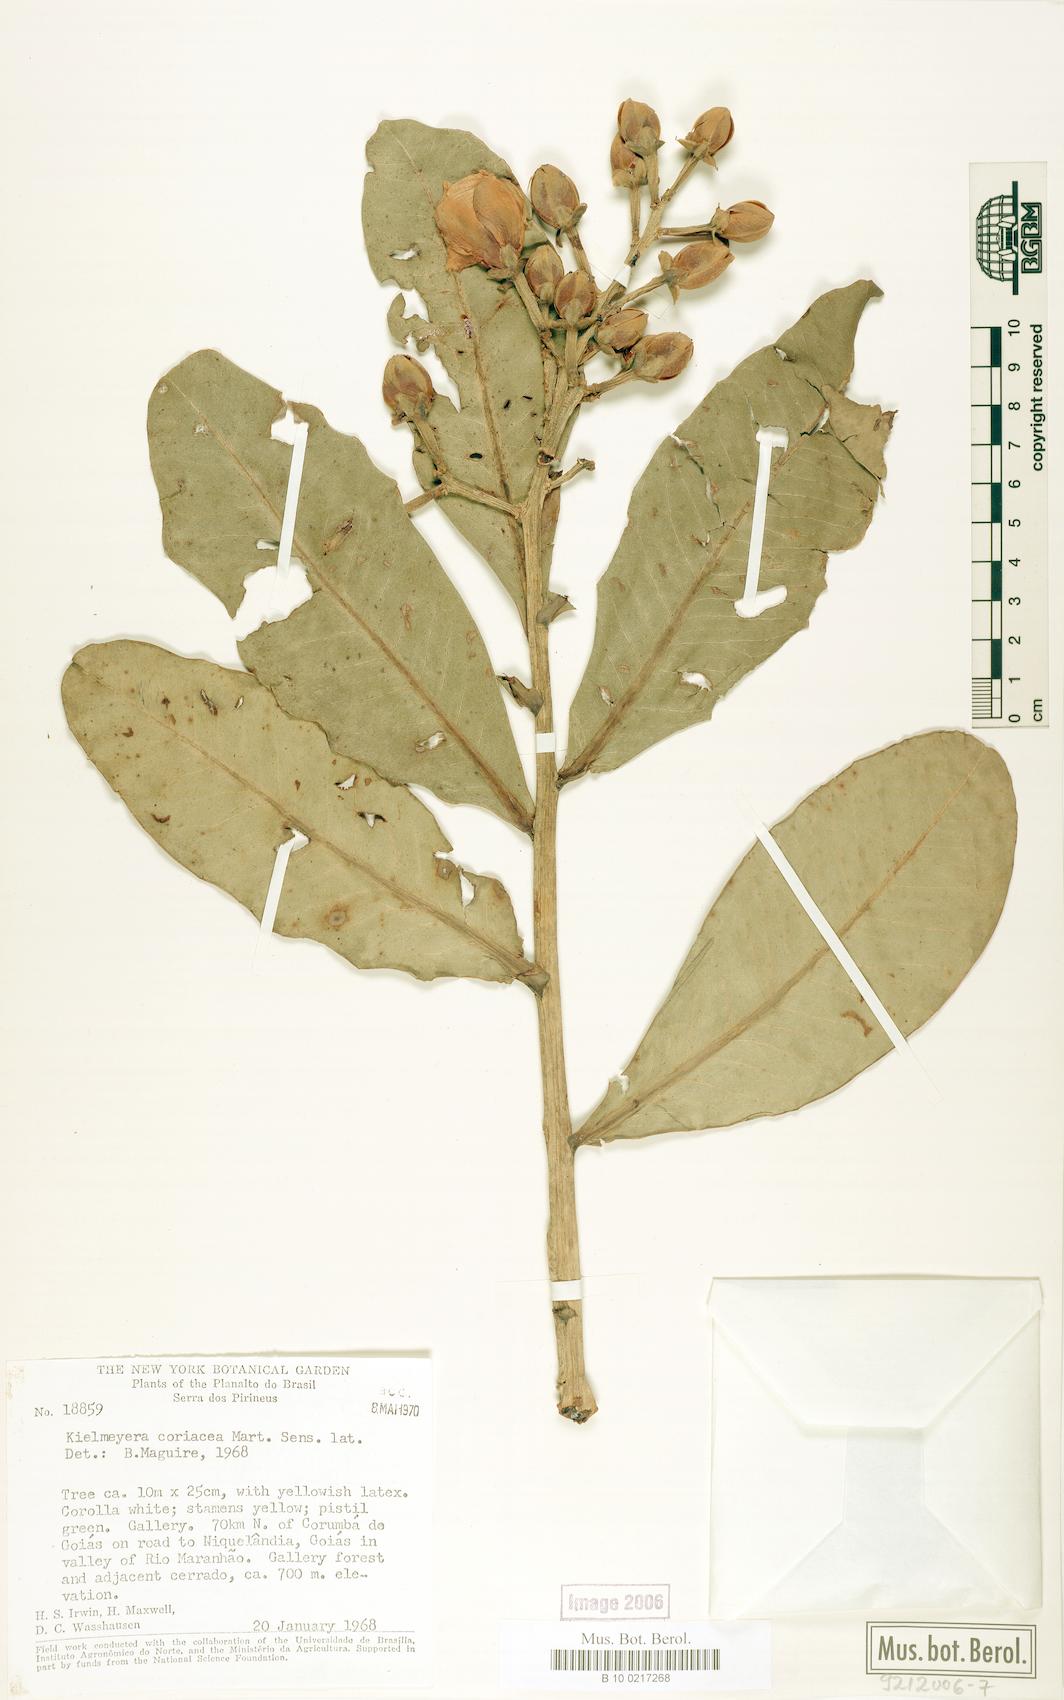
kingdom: Plantae
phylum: Tracheophyta
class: Magnoliopsida
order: Malpighiales
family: Calophyllaceae
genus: Kielmeyera
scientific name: Kielmeyera coriacea
